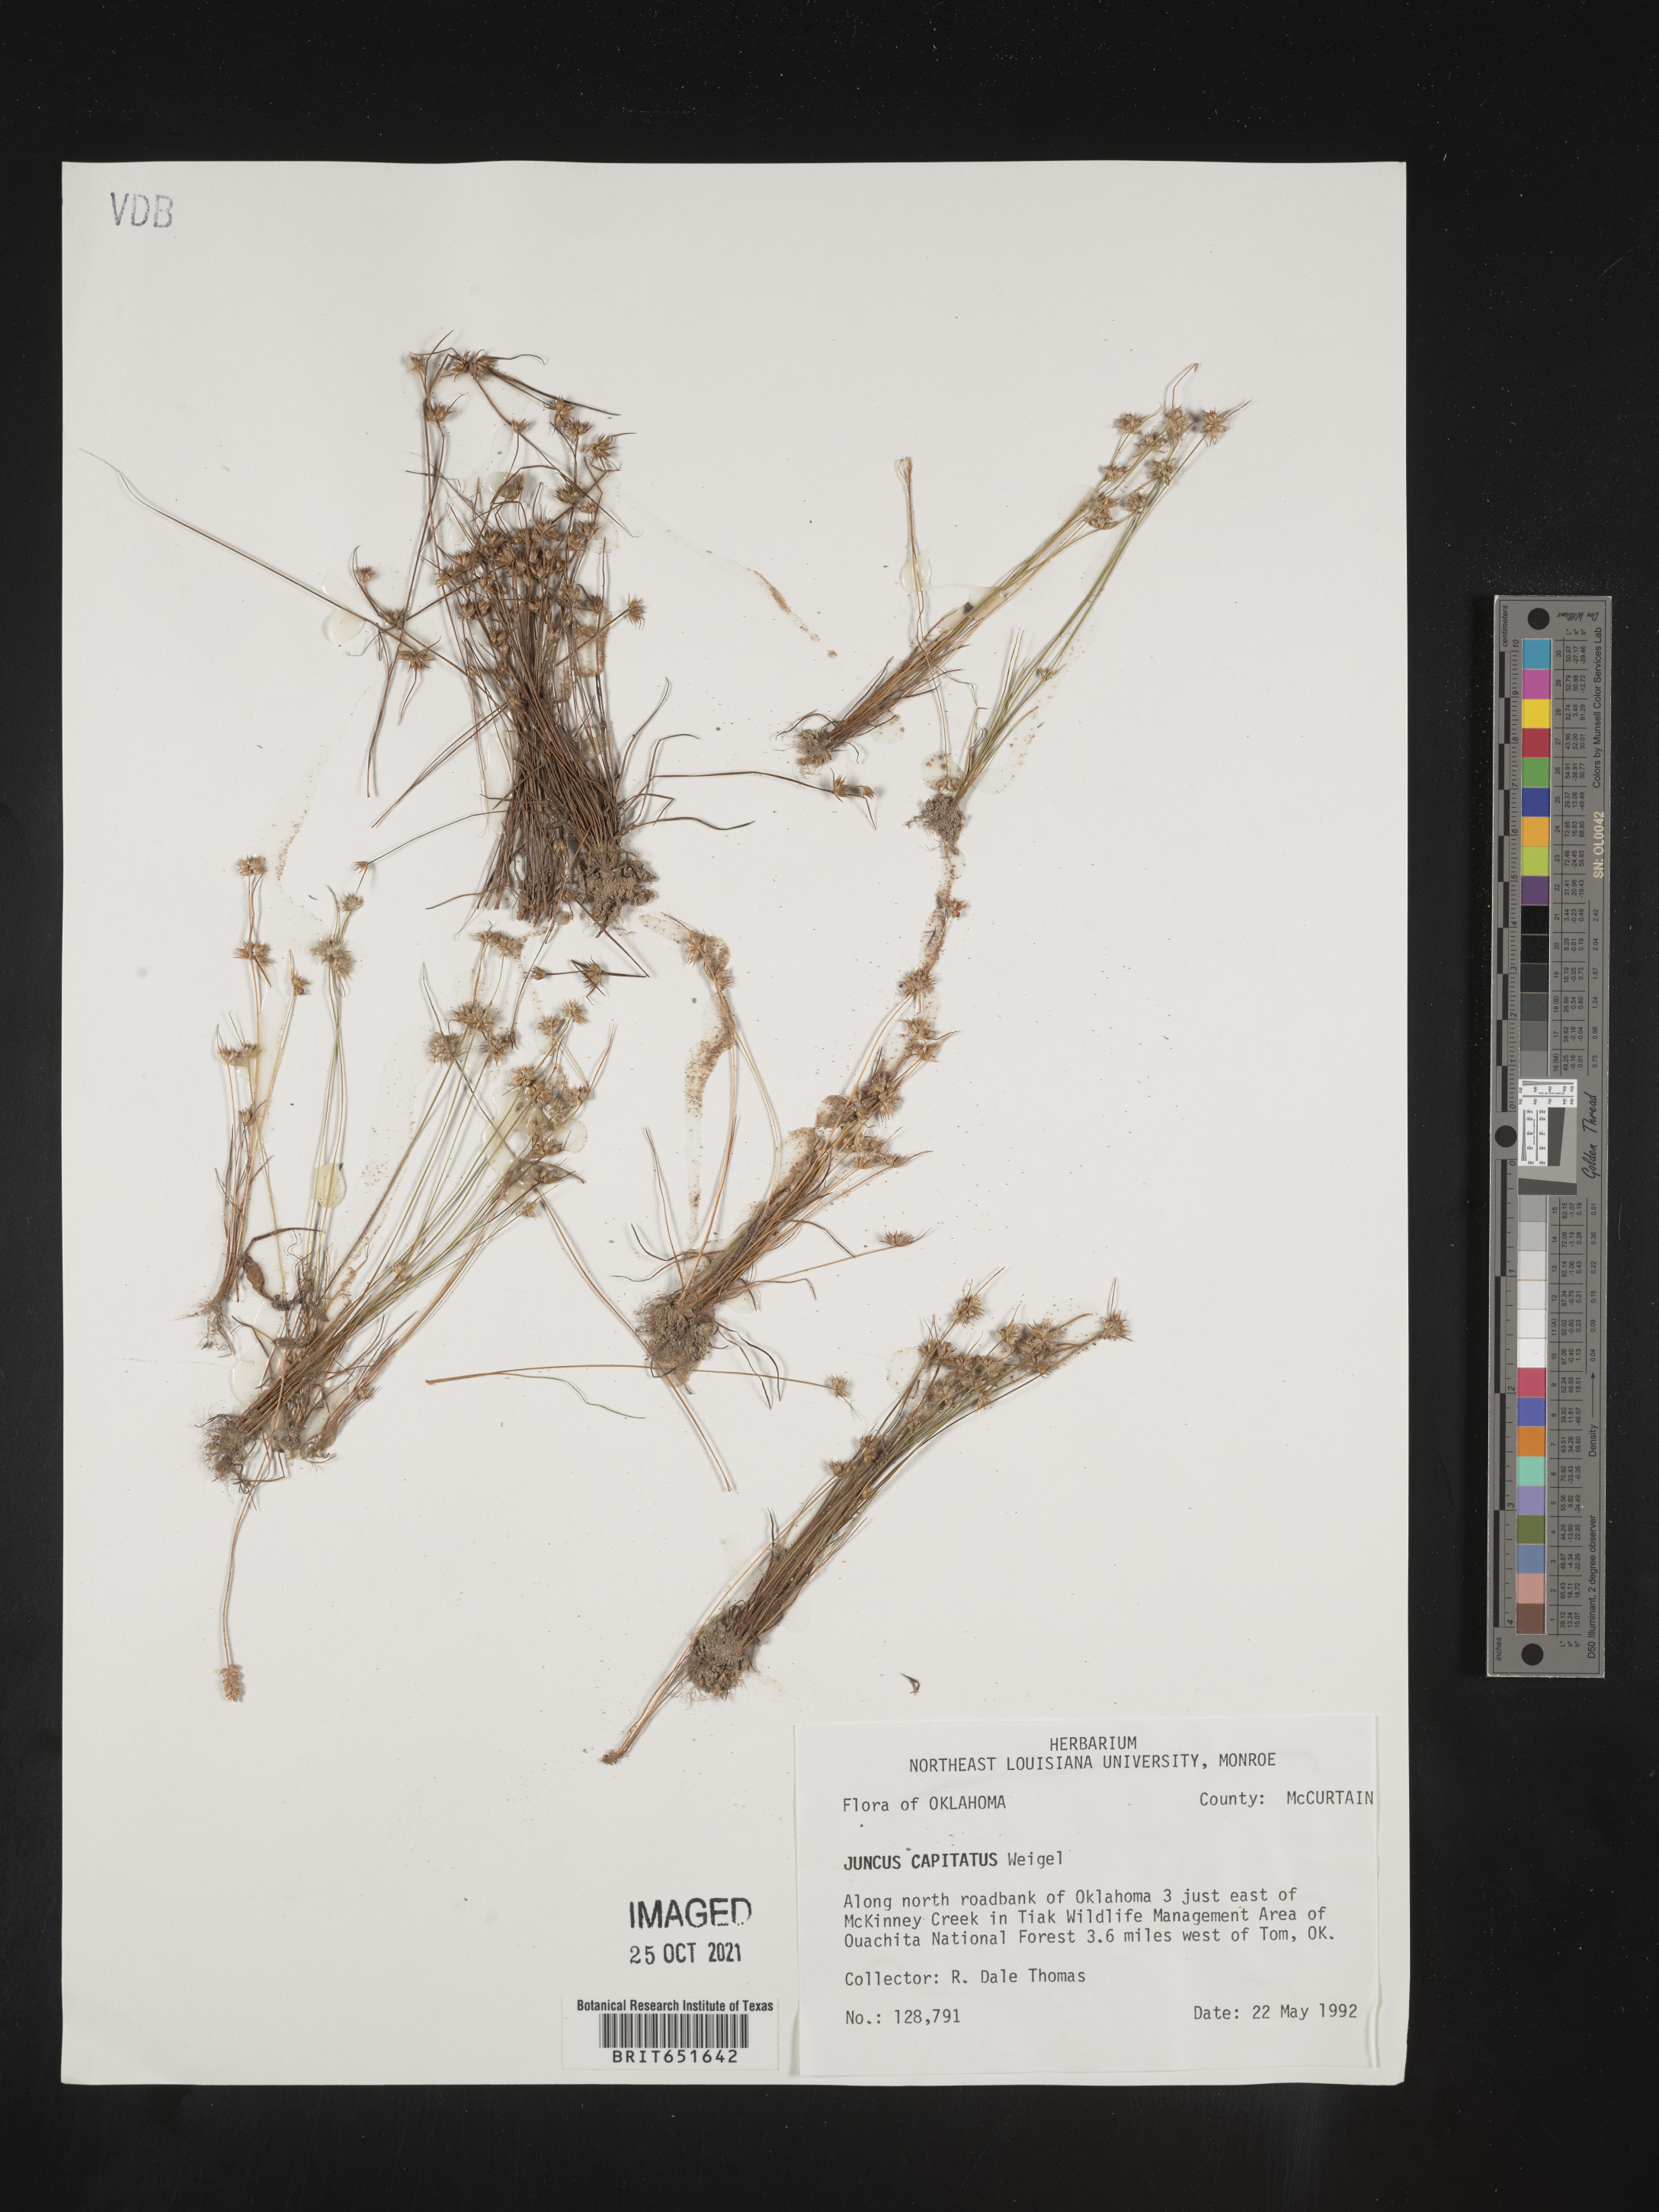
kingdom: Plantae
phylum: Tracheophyta
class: Liliopsida
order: Poales
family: Juncaceae
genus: Juncus
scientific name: Juncus capitatus
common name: Dwarf rush
